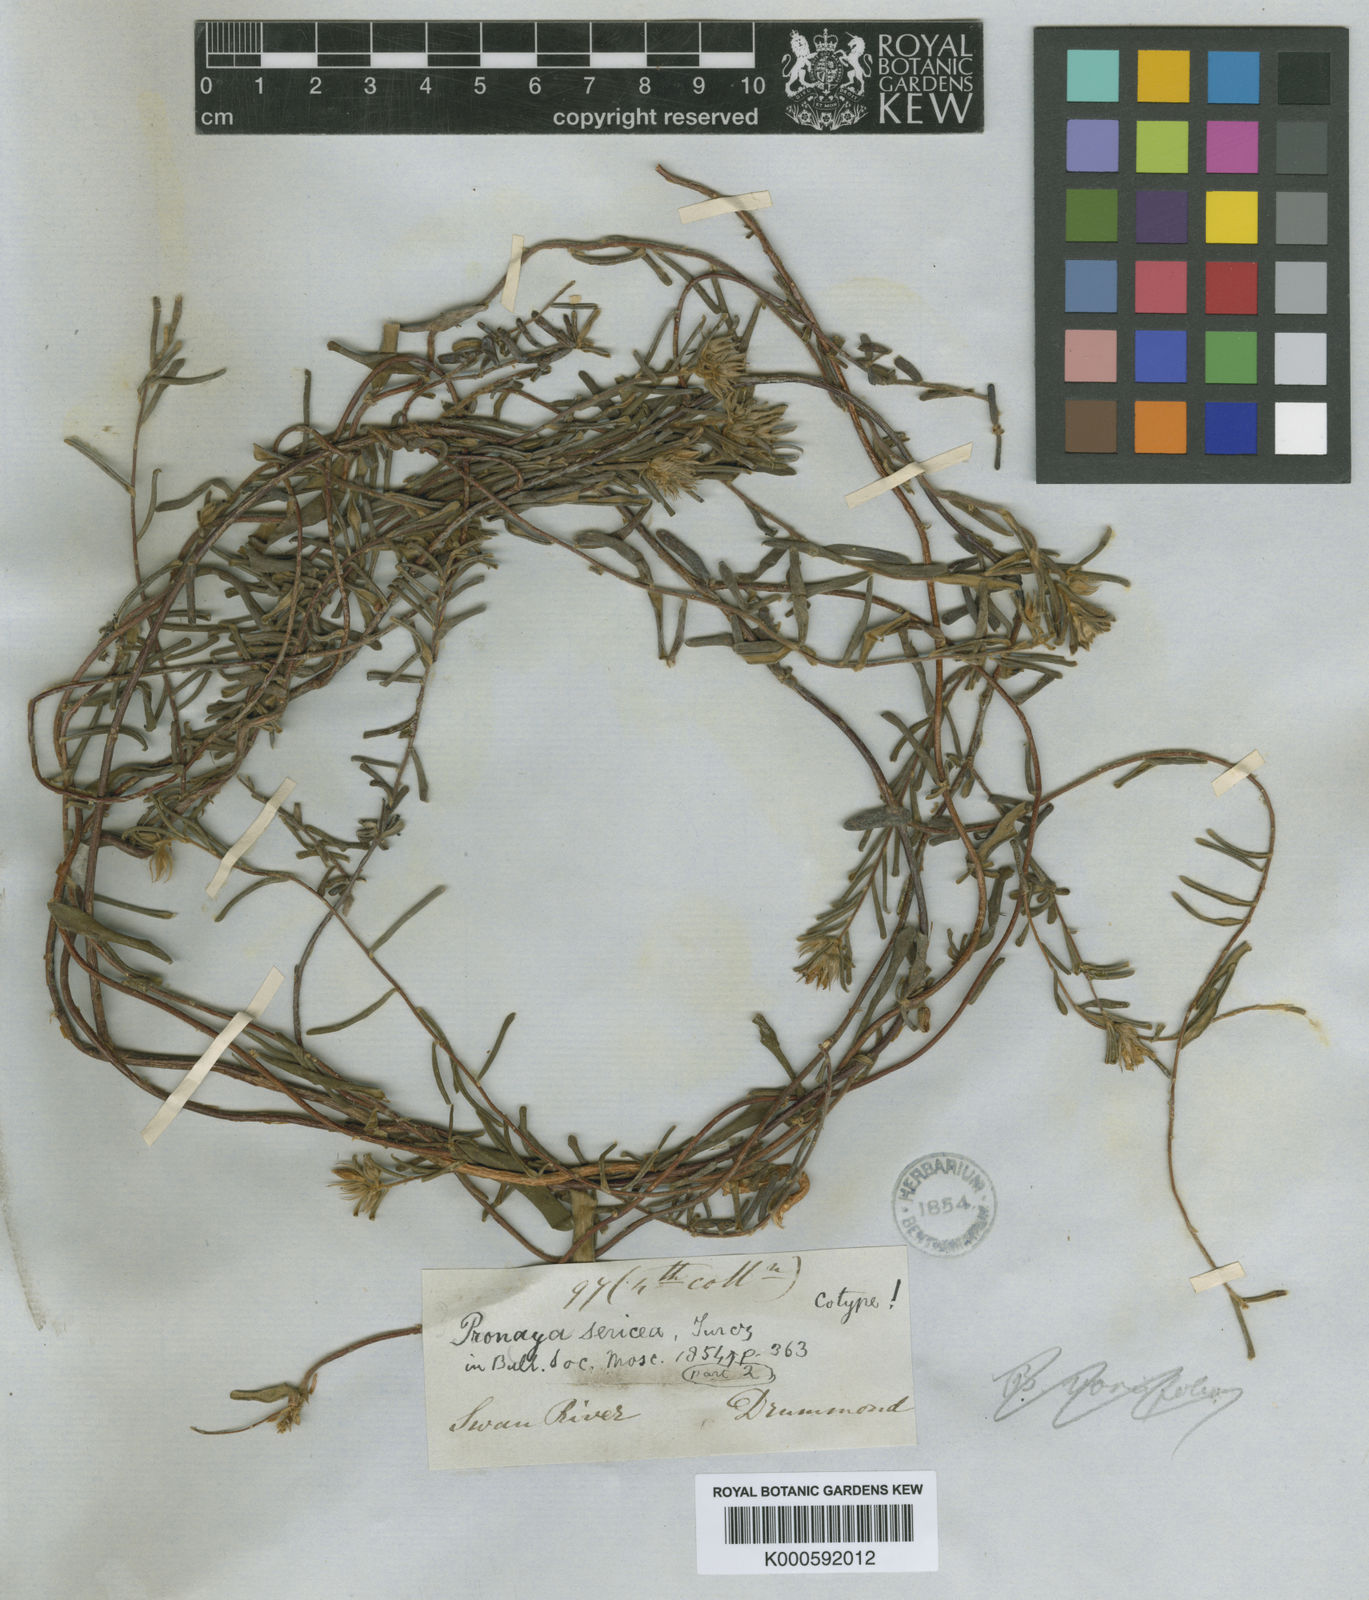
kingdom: Plantae
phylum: Tracheophyta
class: Magnoliopsida
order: Apiales
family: Pittosporaceae
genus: Billardiera
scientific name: Billardiera variifolia
